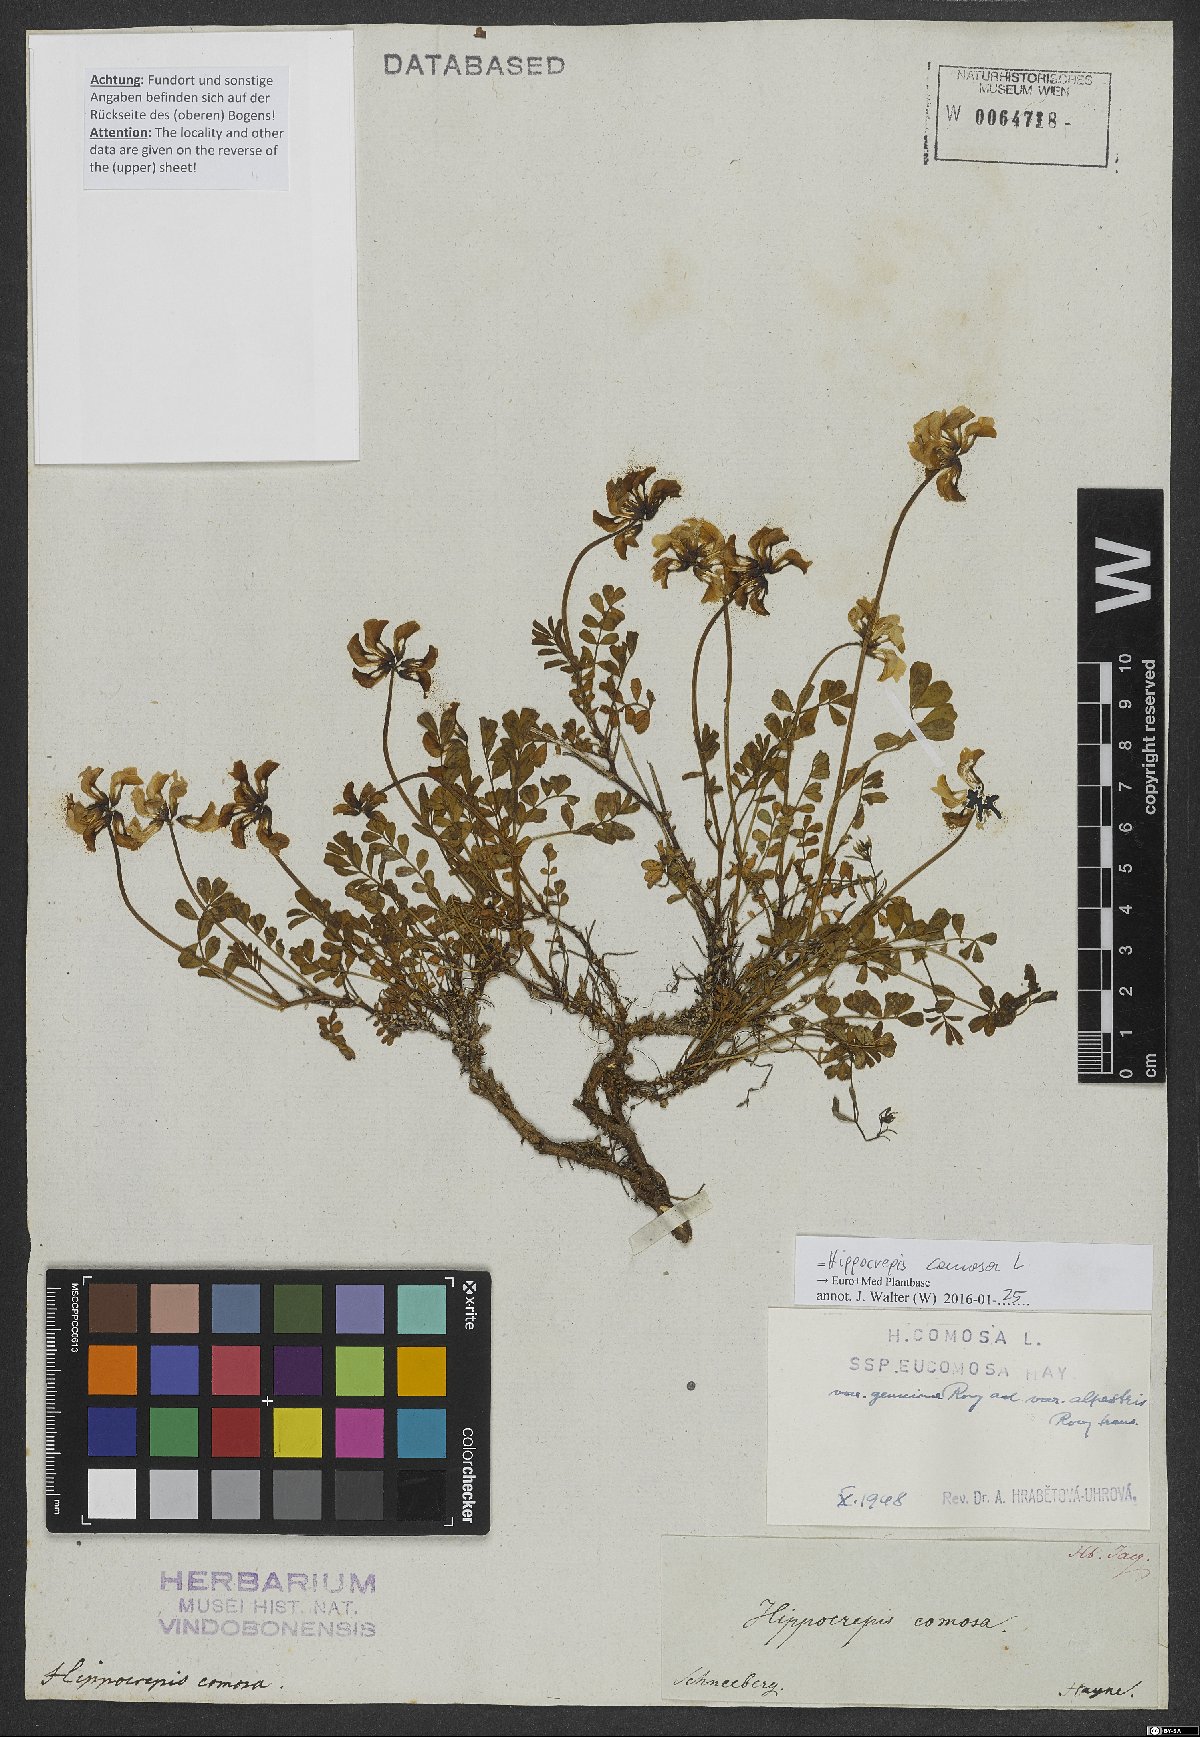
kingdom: Plantae
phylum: Tracheophyta
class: Magnoliopsida
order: Fabales
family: Fabaceae
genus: Hippocrepis
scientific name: Hippocrepis comosa
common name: Horseshoe vetch
